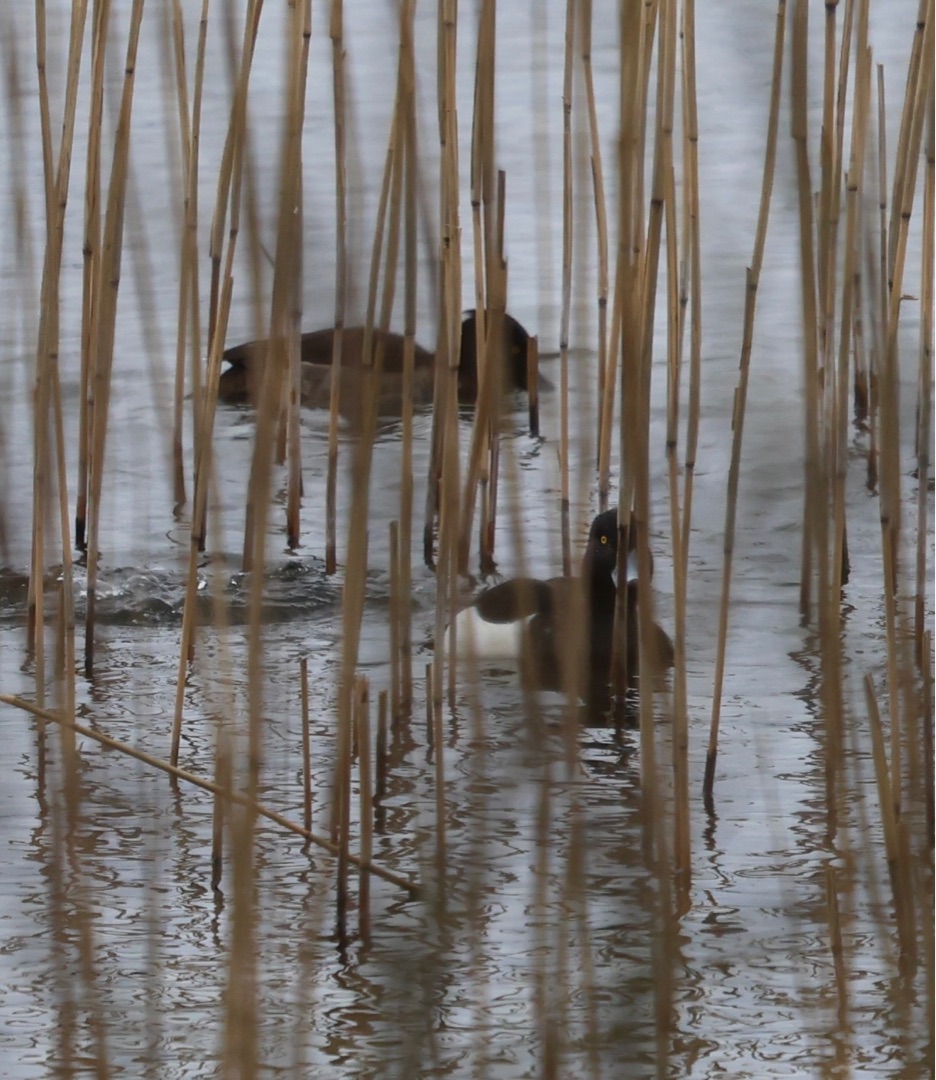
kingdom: Animalia
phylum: Chordata
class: Aves
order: Anseriformes
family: Anatidae
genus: Aythya
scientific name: Aythya fuligula
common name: Troldand
